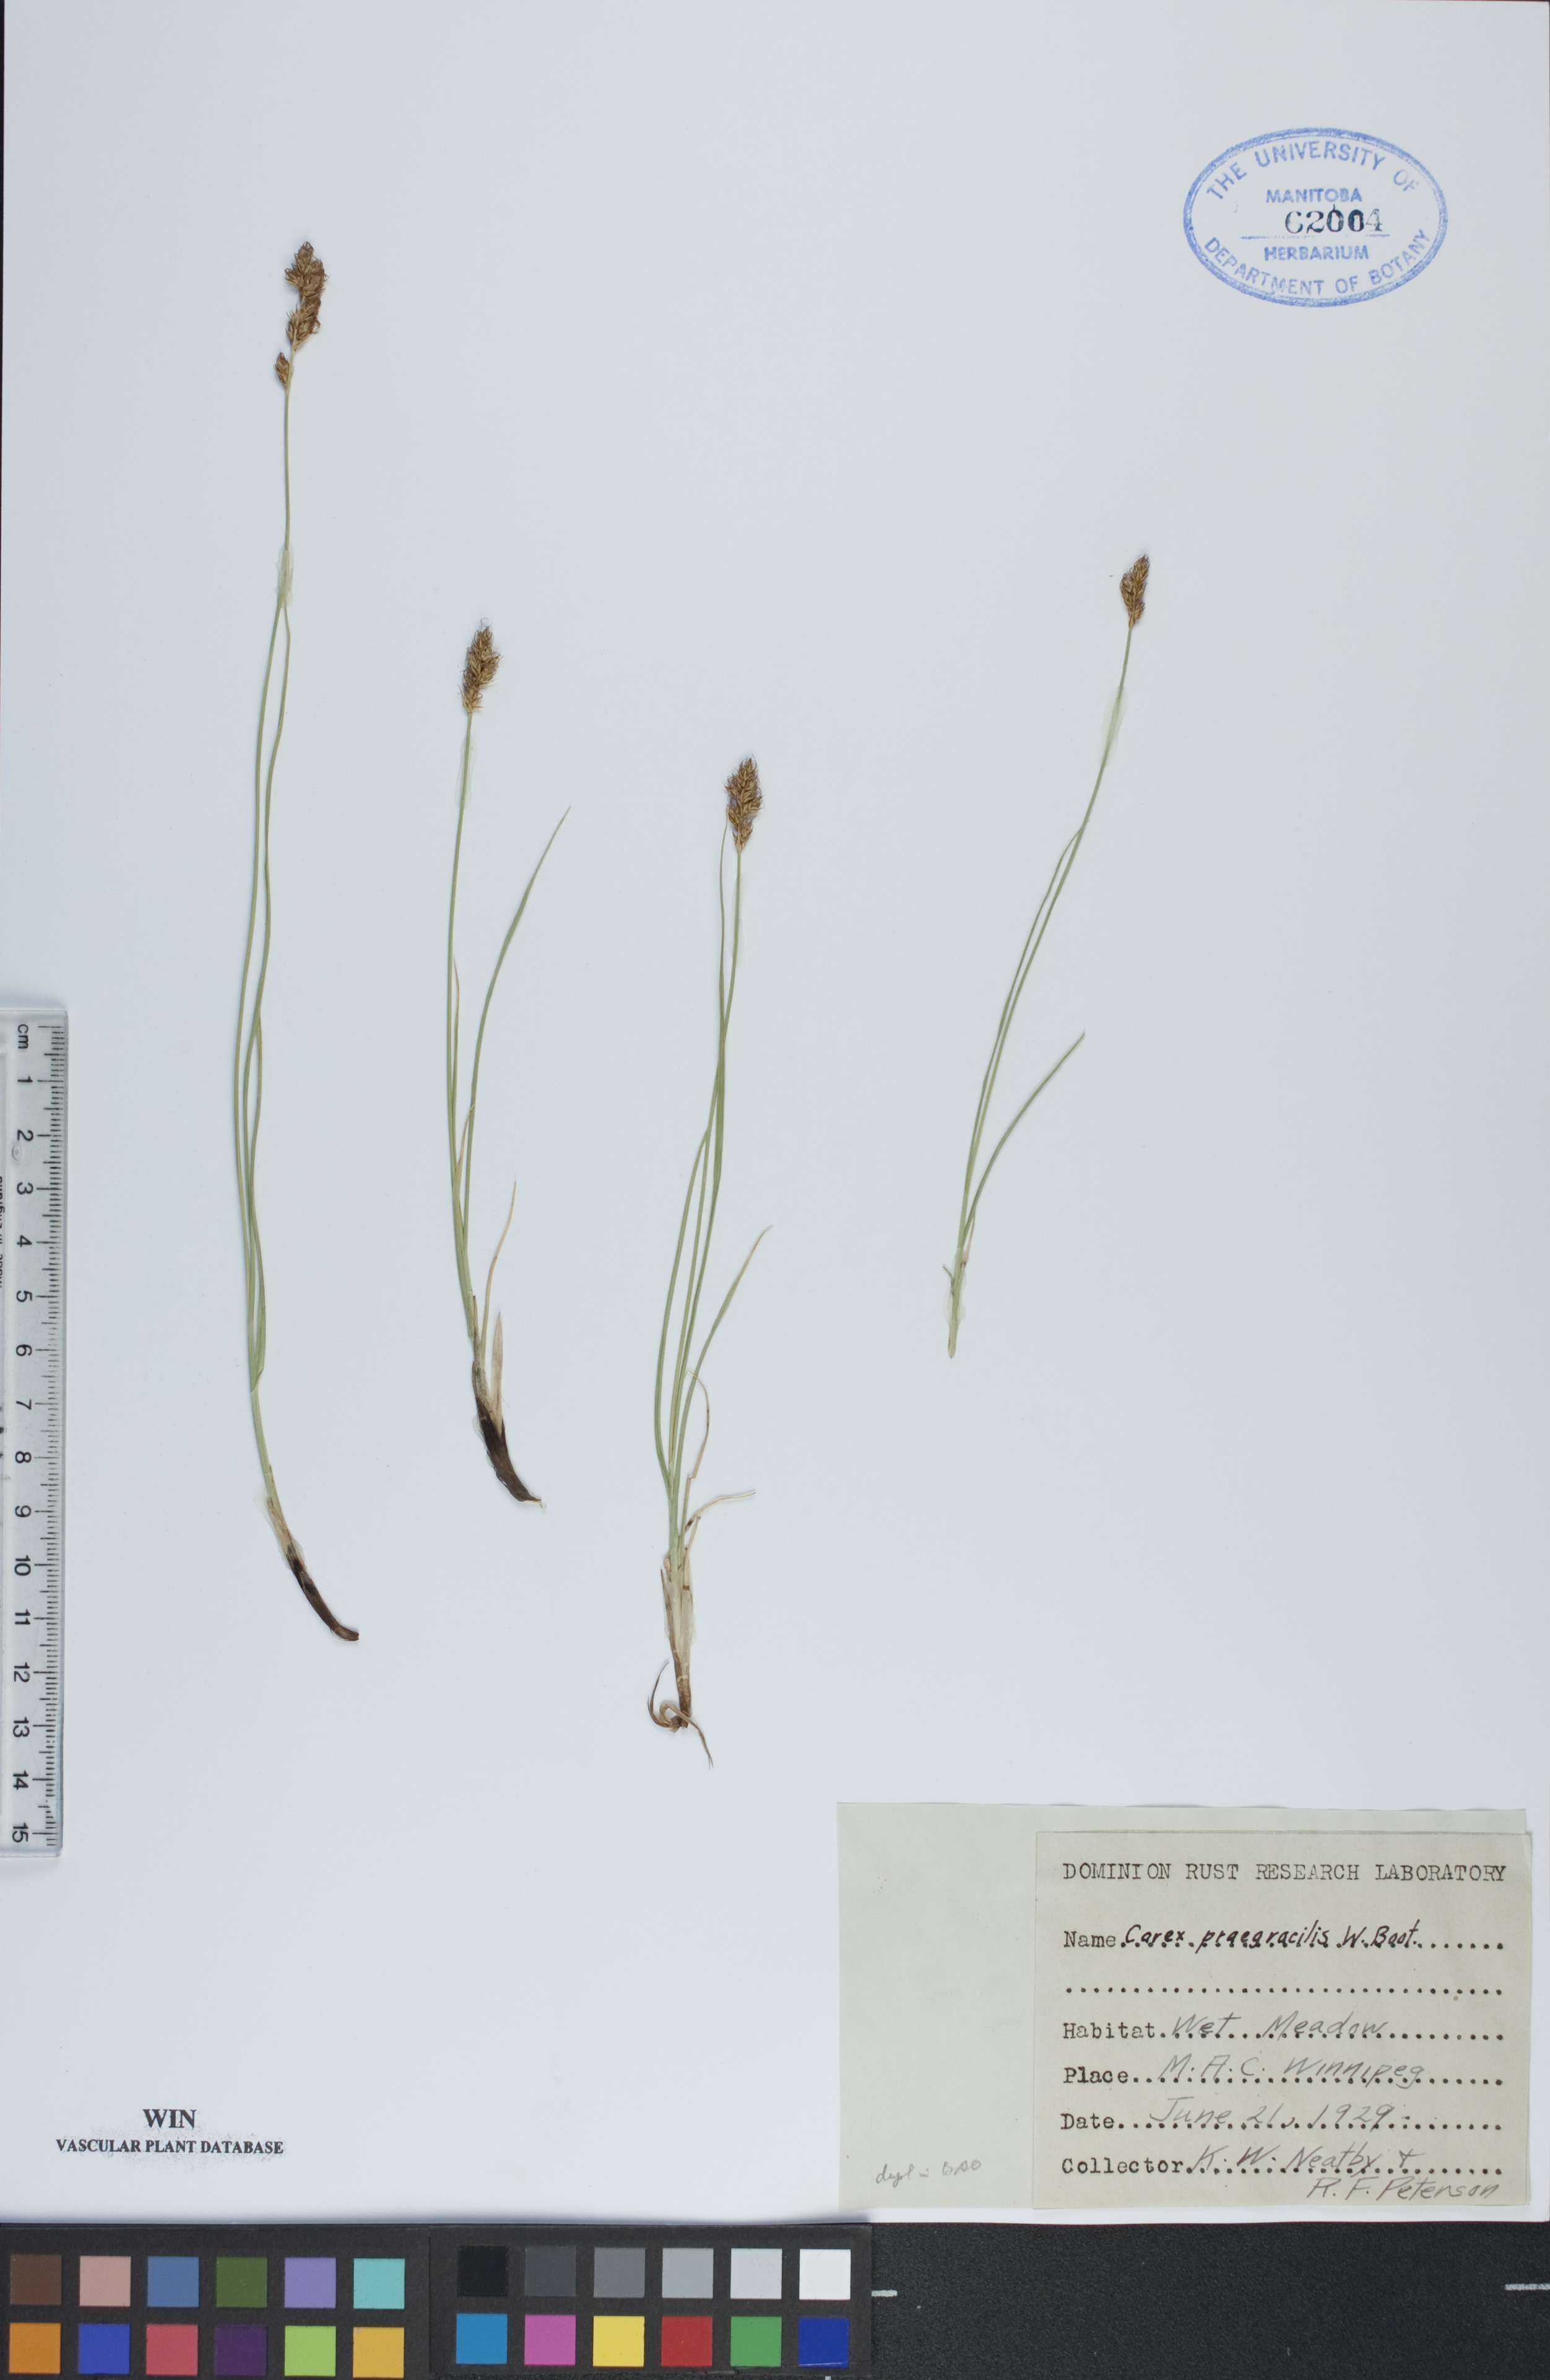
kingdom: Plantae
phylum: Tracheophyta
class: Liliopsida
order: Poales
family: Cyperaceae
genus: Carex
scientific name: Carex praegracilis
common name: Black creeper sedge
